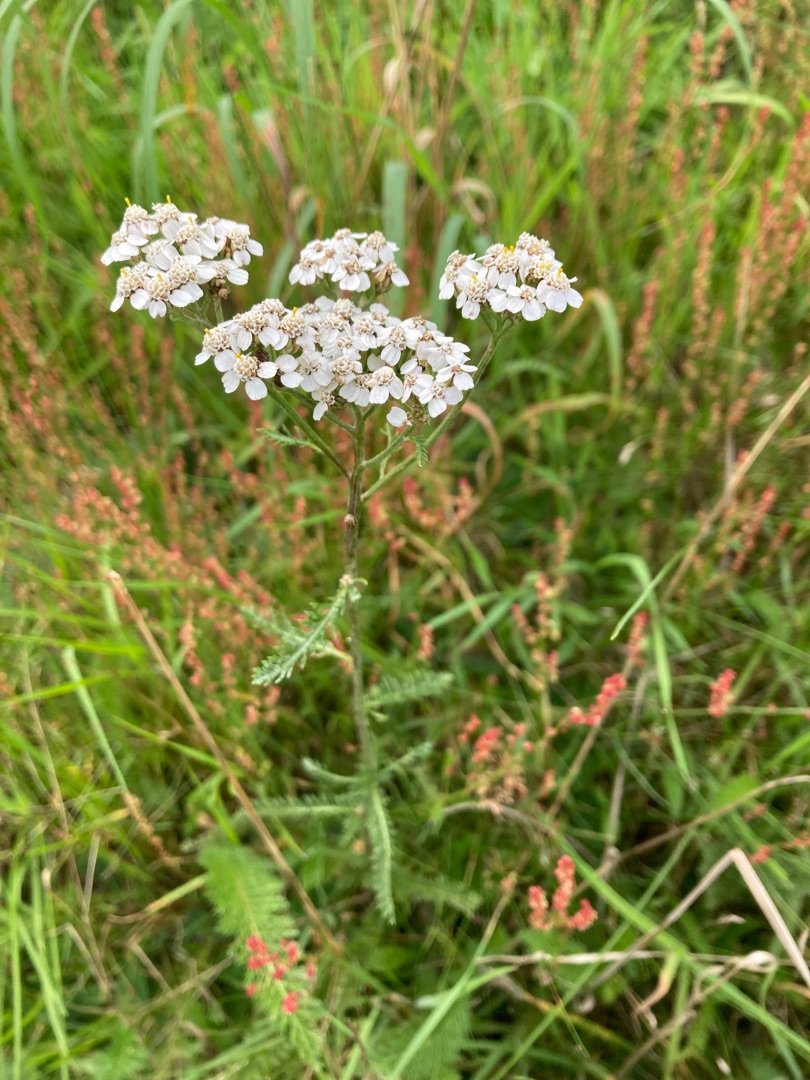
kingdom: Plantae
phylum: Tracheophyta
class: Magnoliopsida
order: Asterales
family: Asteraceae
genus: Achillea
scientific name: Achillea millefolium
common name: Almindelig røllike
